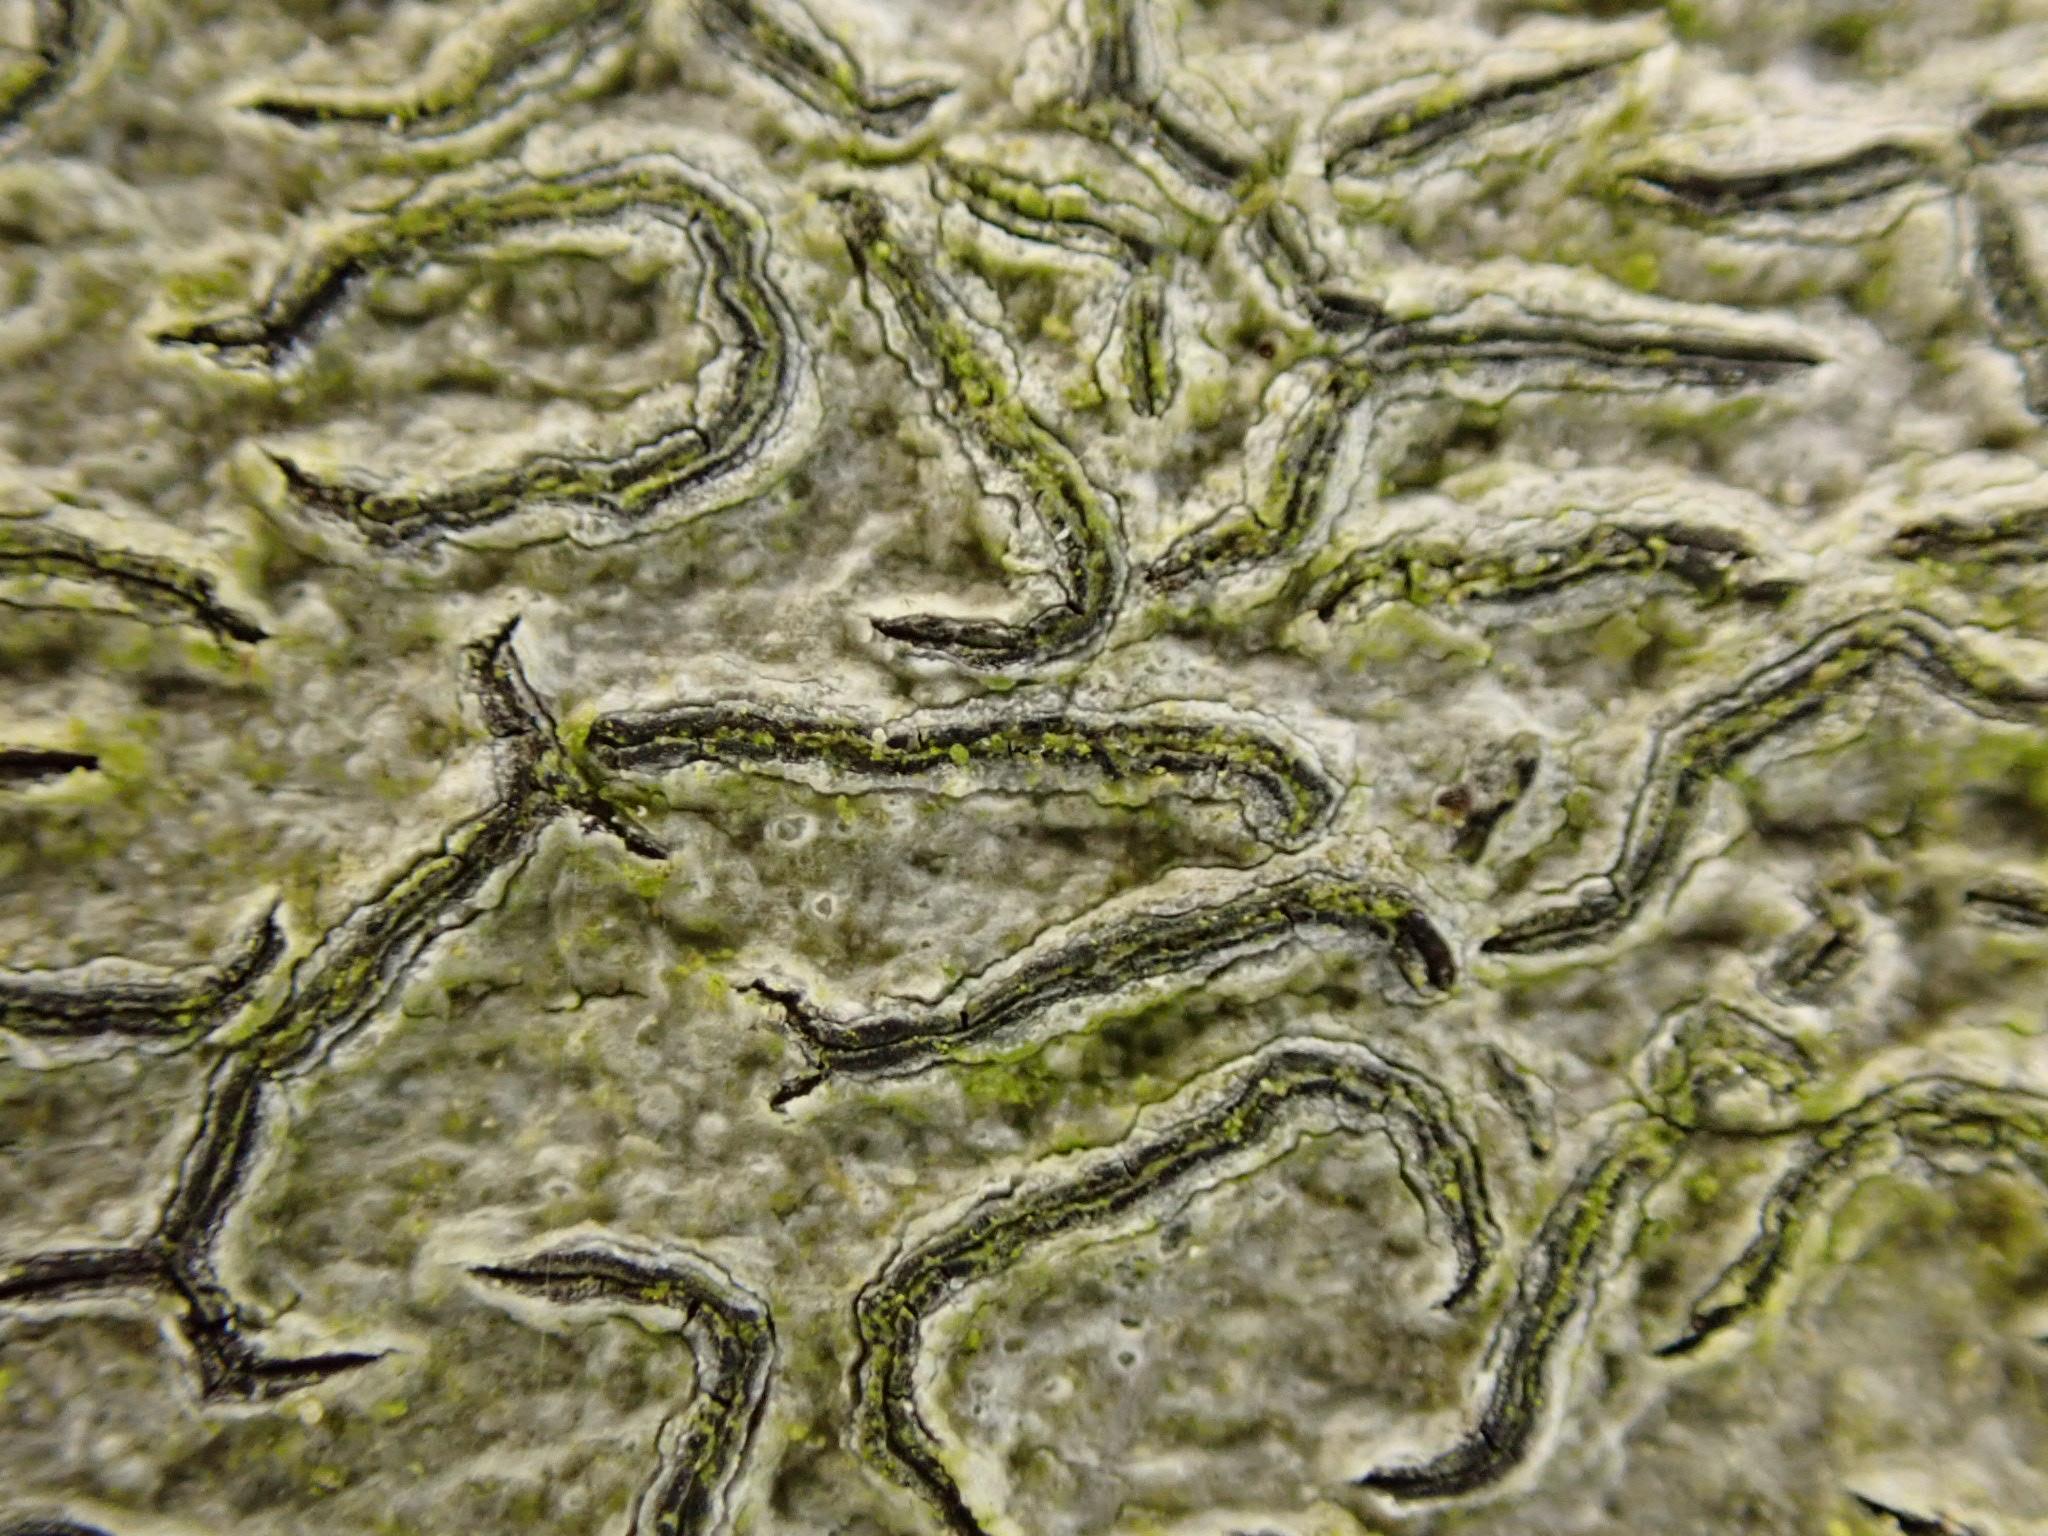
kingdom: Fungi
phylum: Ascomycota
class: Lecanoromycetes
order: Ostropales
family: Graphidaceae
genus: Graphis
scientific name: Graphis scripta
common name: almindelig skriftlav
